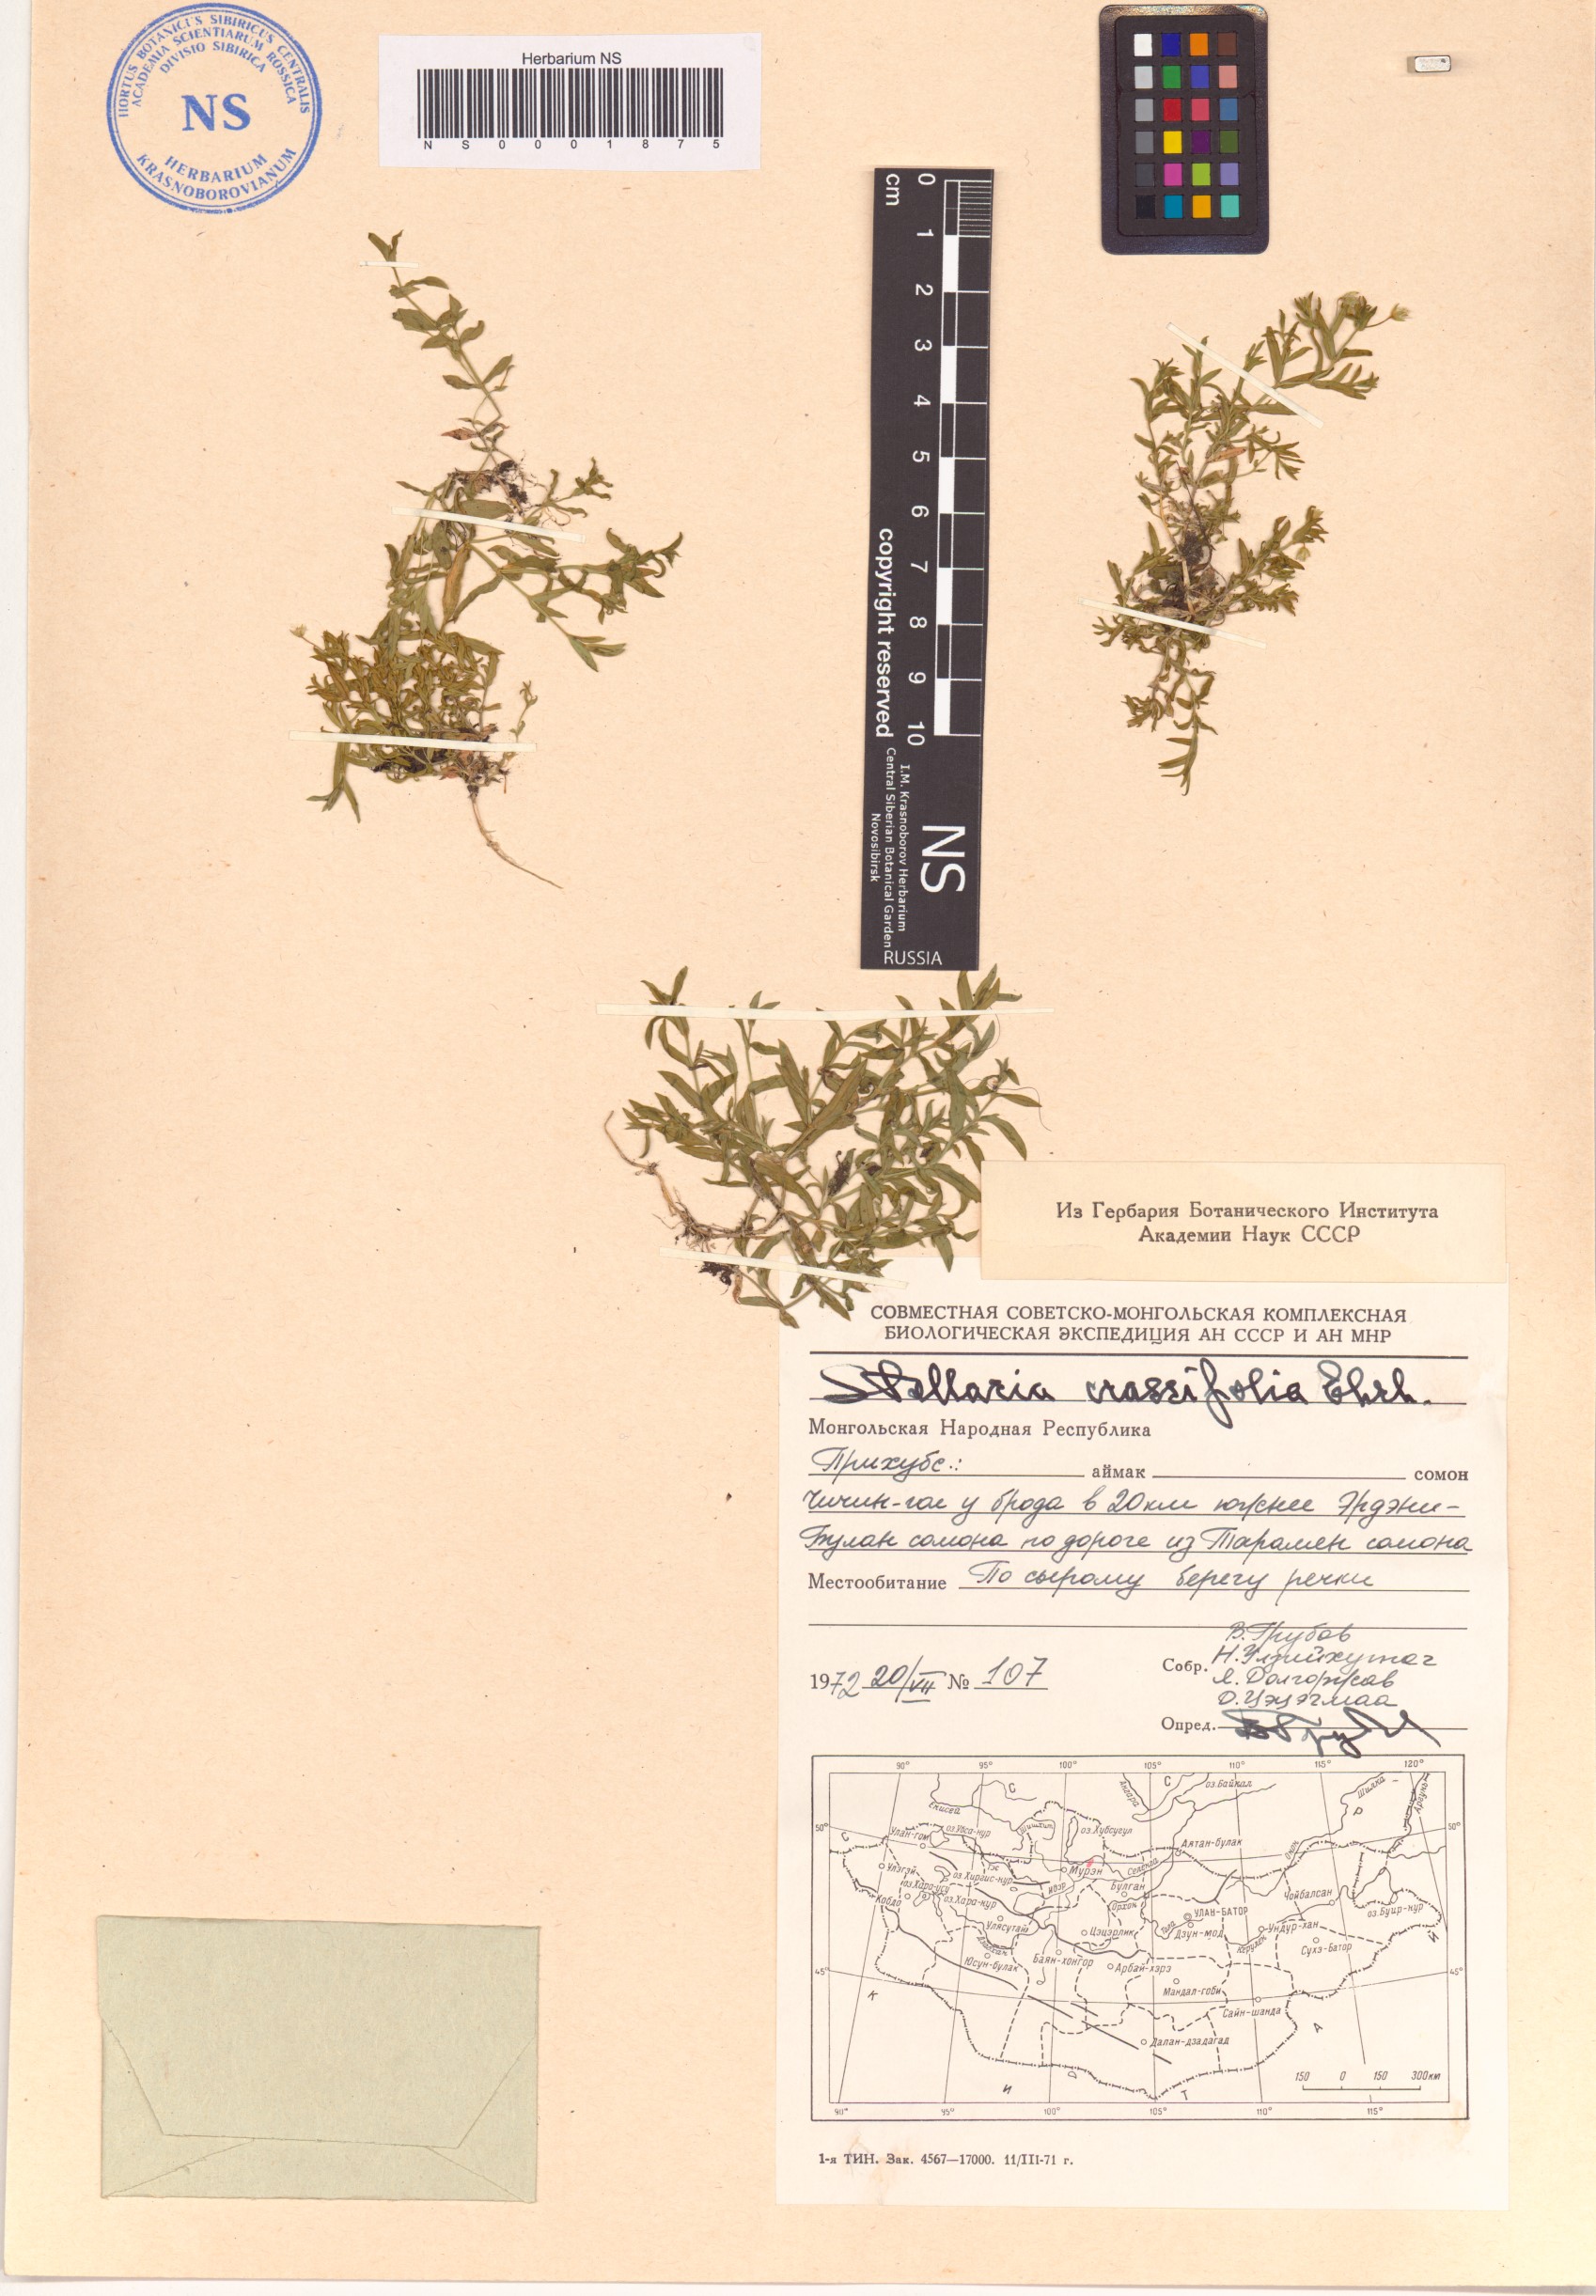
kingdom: Plantae
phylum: Tracheophyta
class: Magnoliopsida
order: Caryophyllales
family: Caryophyllaceae
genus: Stellaria
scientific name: Stellaria crassifolia
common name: Fleshy starwort
